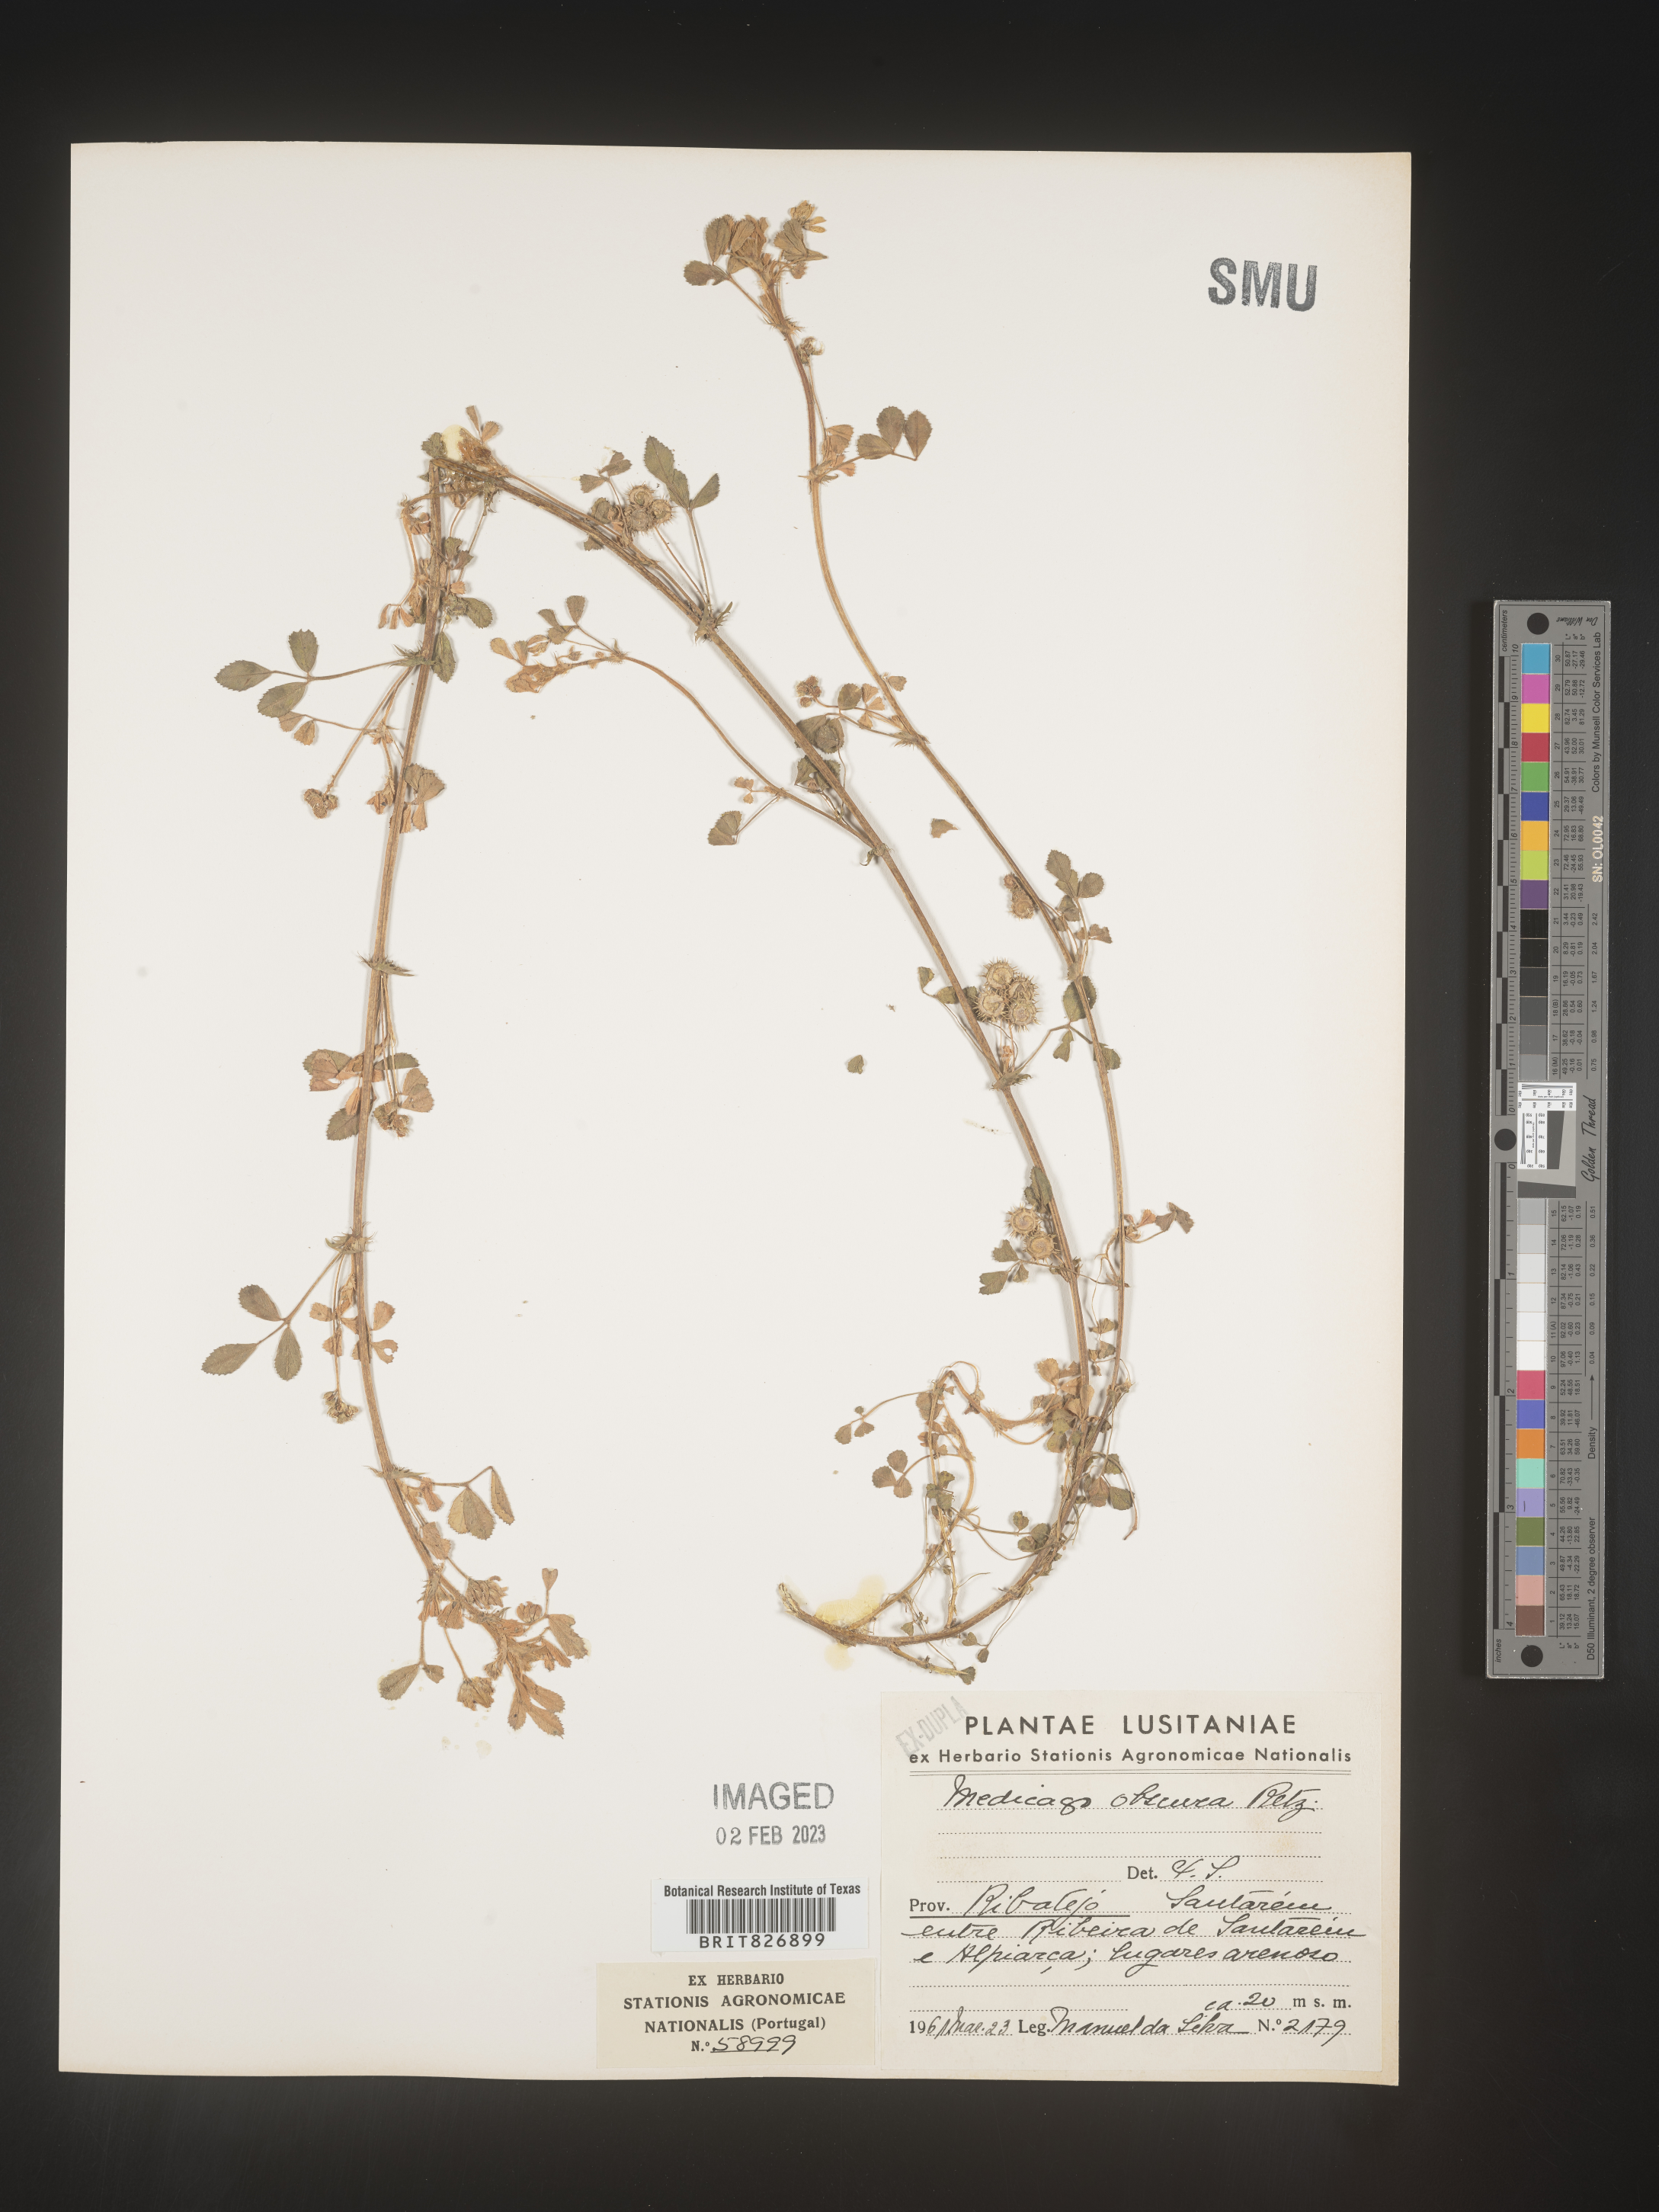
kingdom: Plantae
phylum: Tracheophyta
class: Magnoliopsida
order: Fabales
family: Fabaceae
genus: Medicago
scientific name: Medicago
